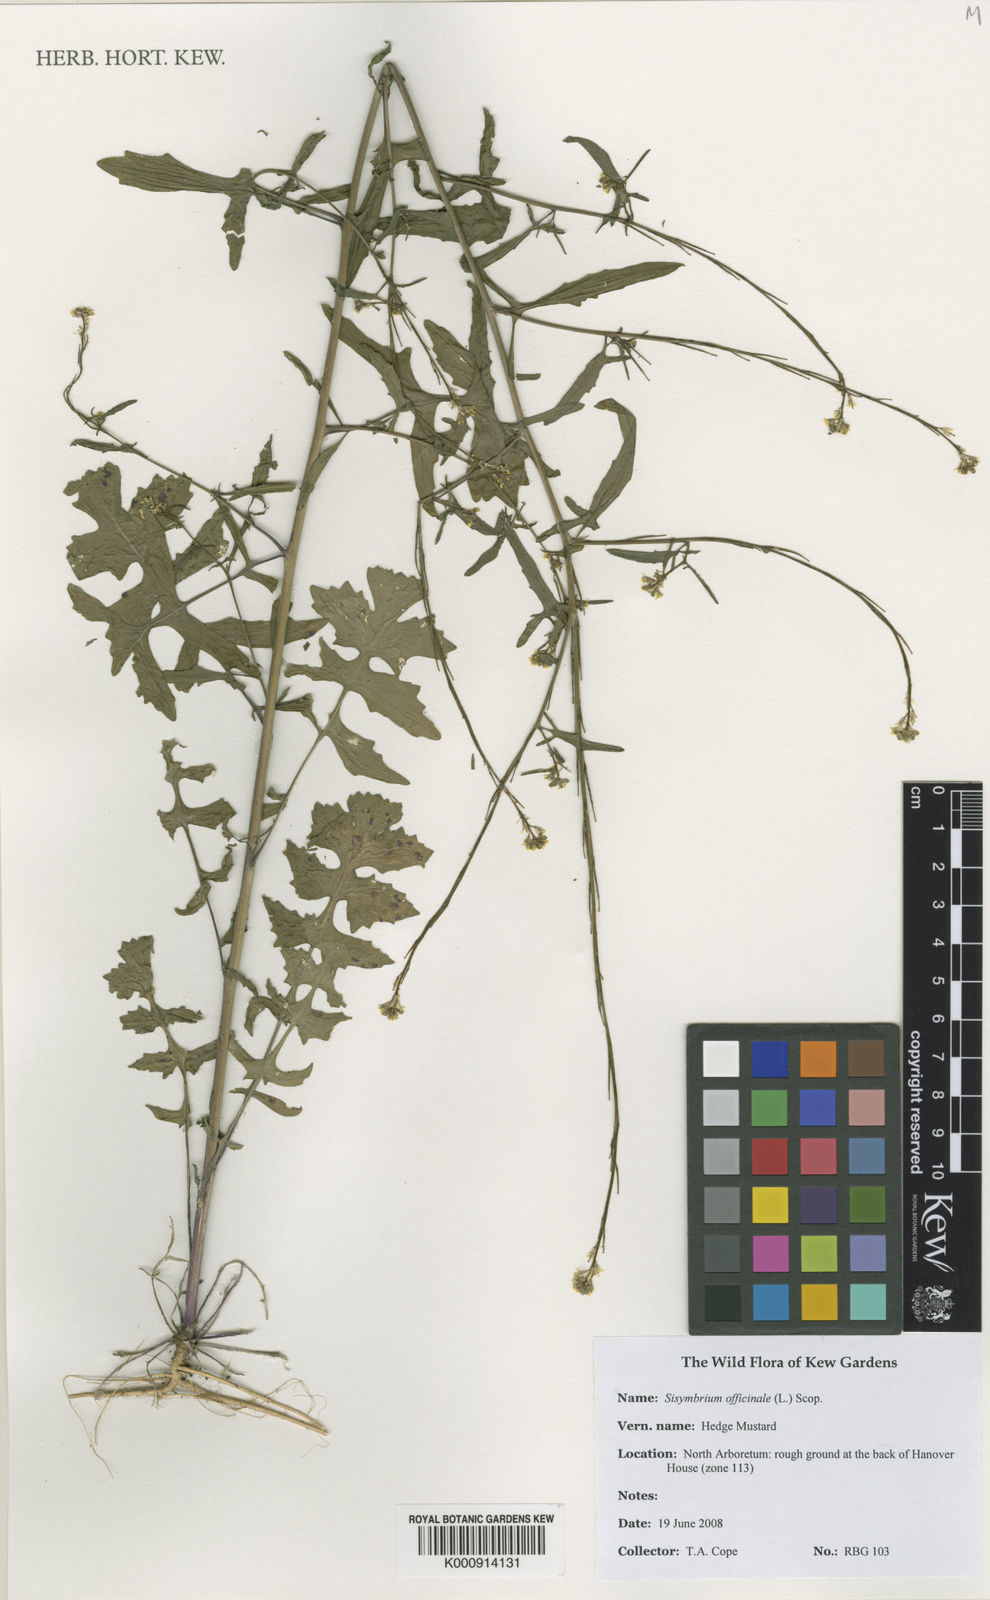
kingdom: Plantae
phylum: Tracheophyta
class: Magnoliopsida
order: Brassicales
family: Brassicaceae
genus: Sisymbrium
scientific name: Sisymbrium officinale
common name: Hedge mustard
